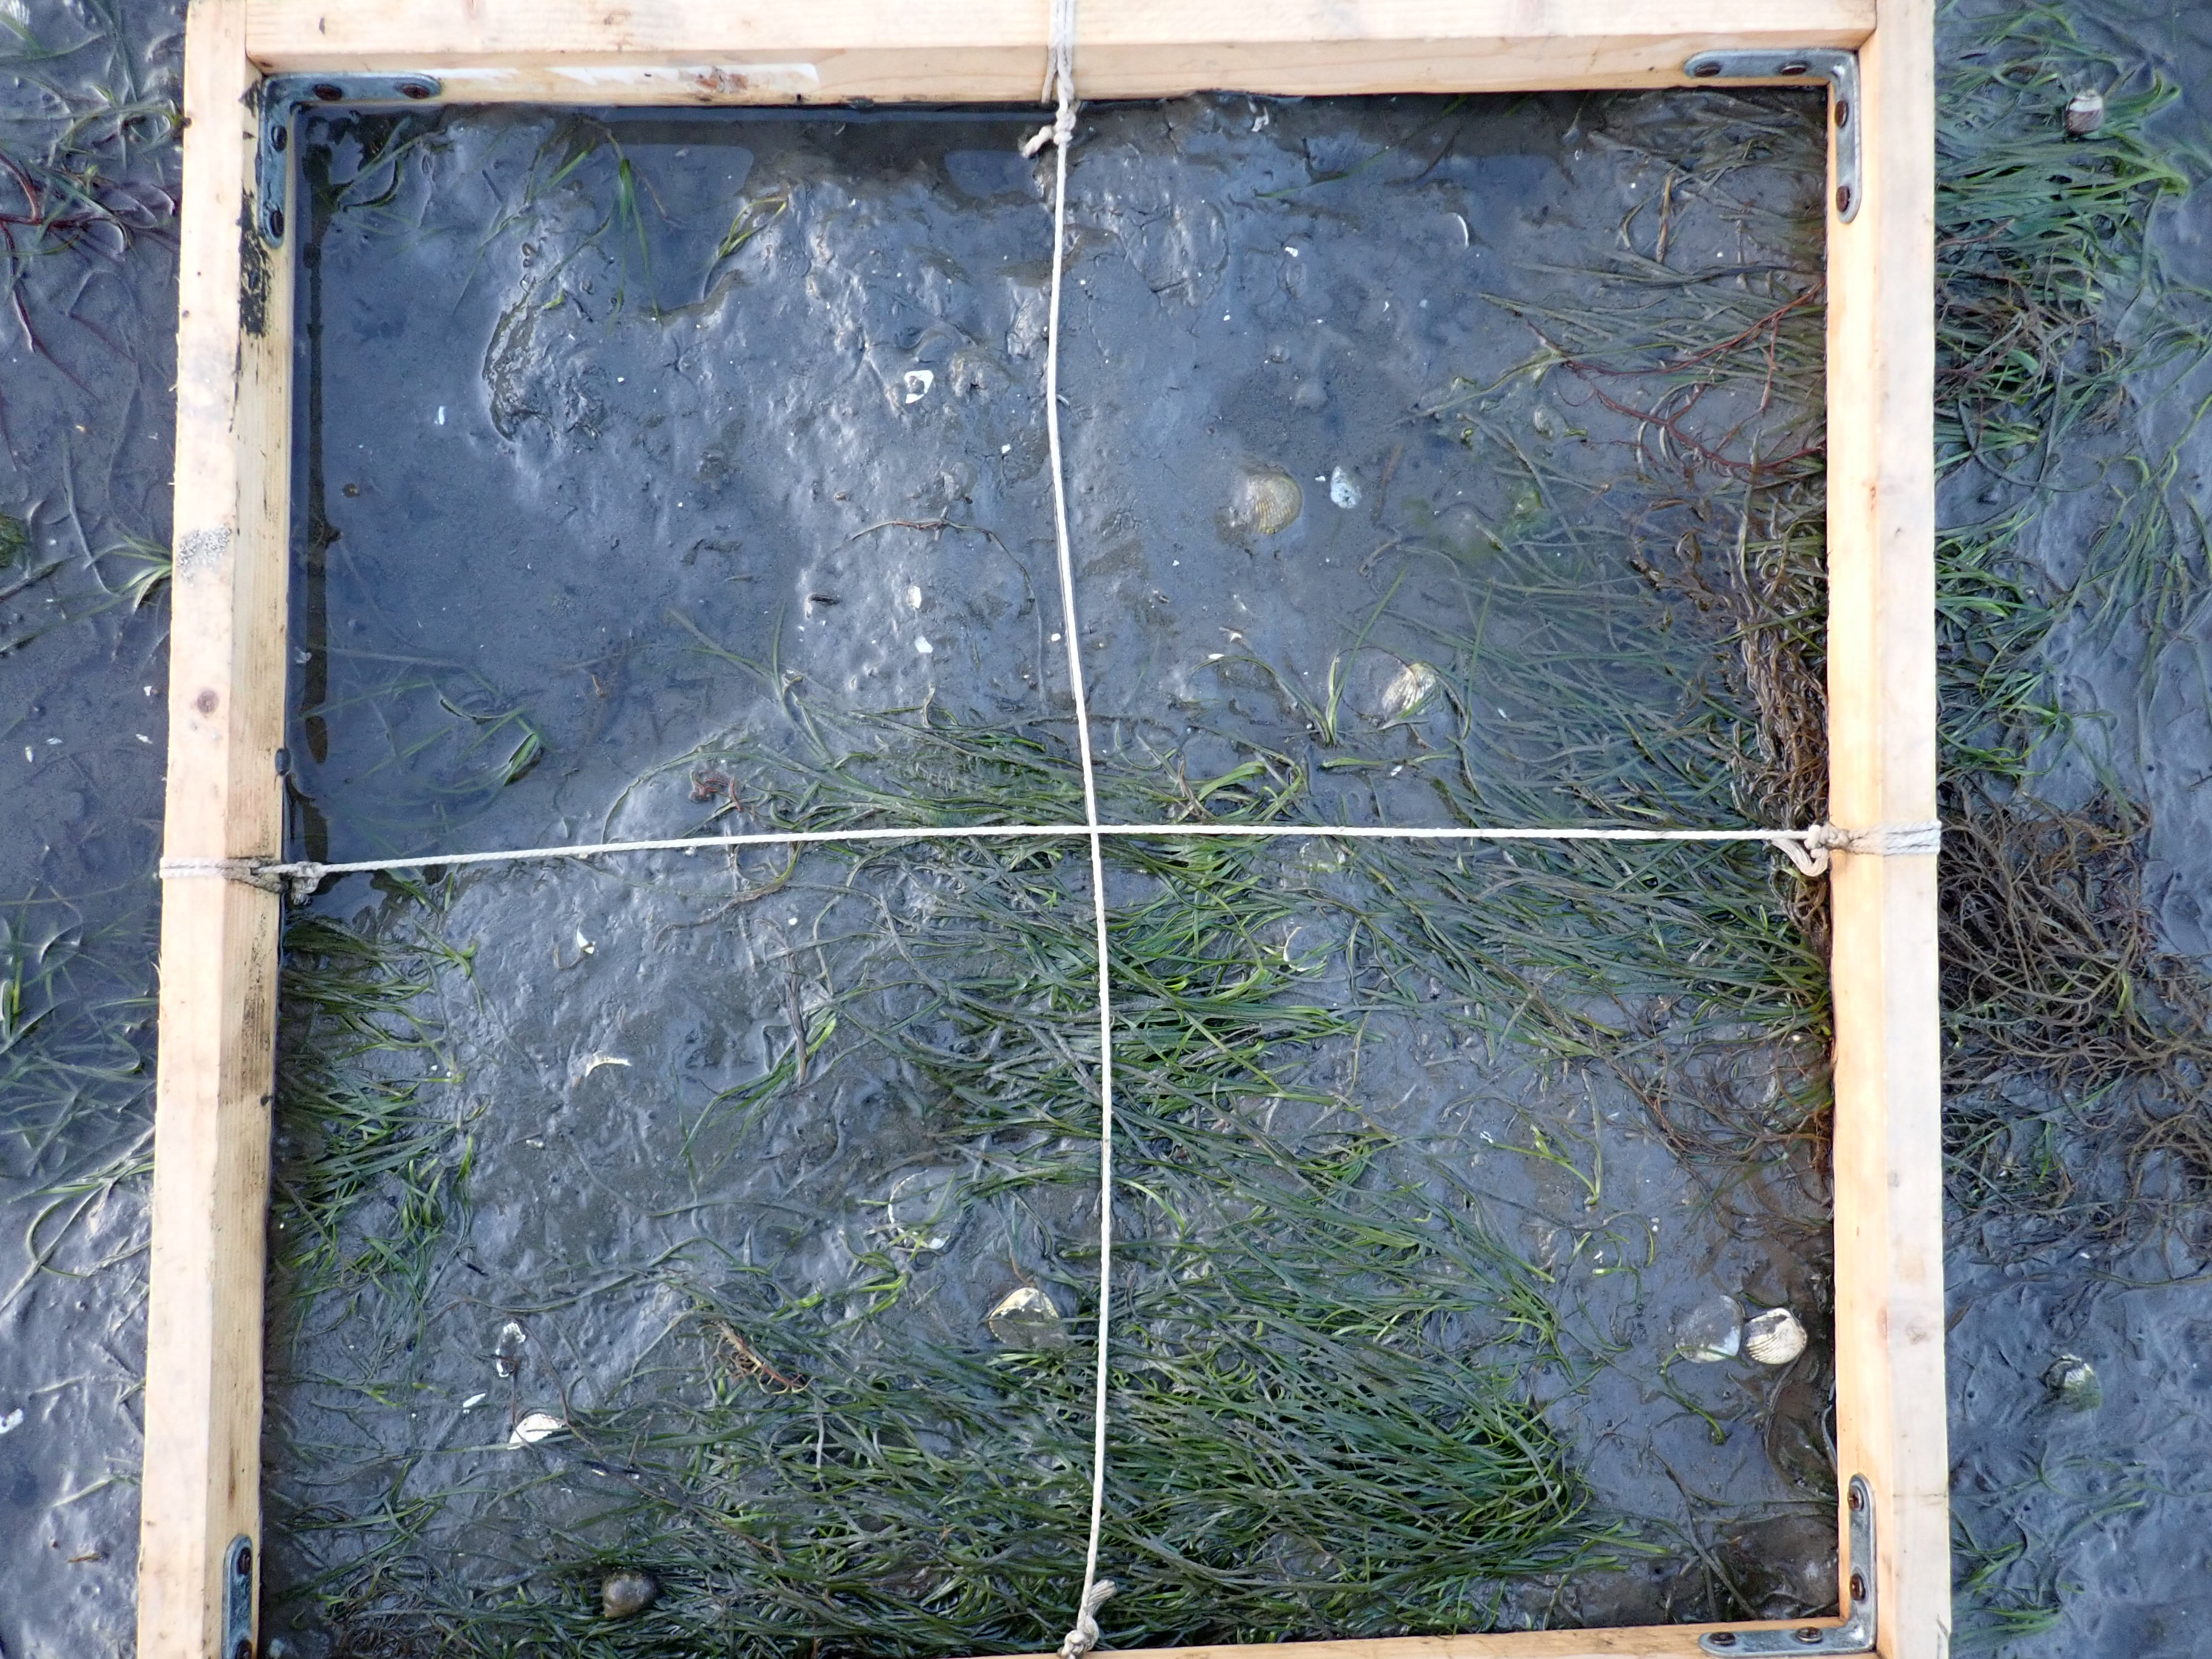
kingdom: Plantae
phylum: Tracheophyta
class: Liliopsida
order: Alismatales
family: Zosteraceae
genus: Zostera
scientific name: Zostera noltii
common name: Dwarf eelgrass
